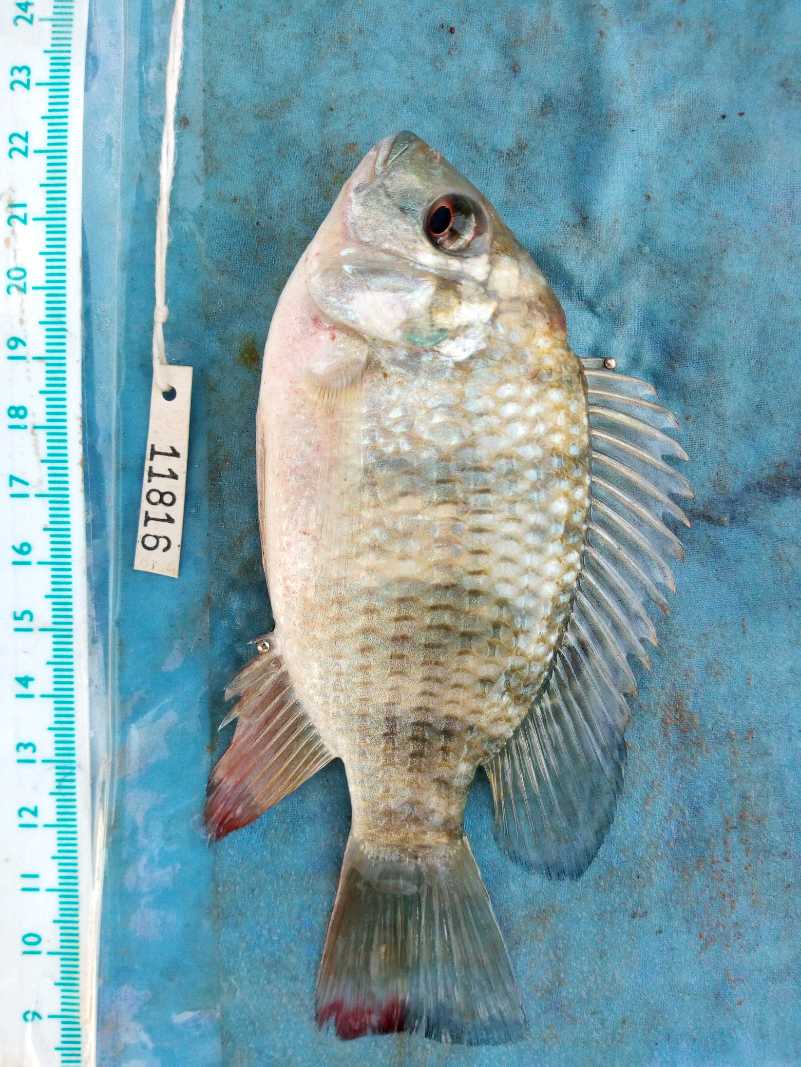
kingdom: Animalia
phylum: Chordata
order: Perciformes
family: Cichlidae
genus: Coptodon
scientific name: Coptodon rendalli
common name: Redbreast tilapia
